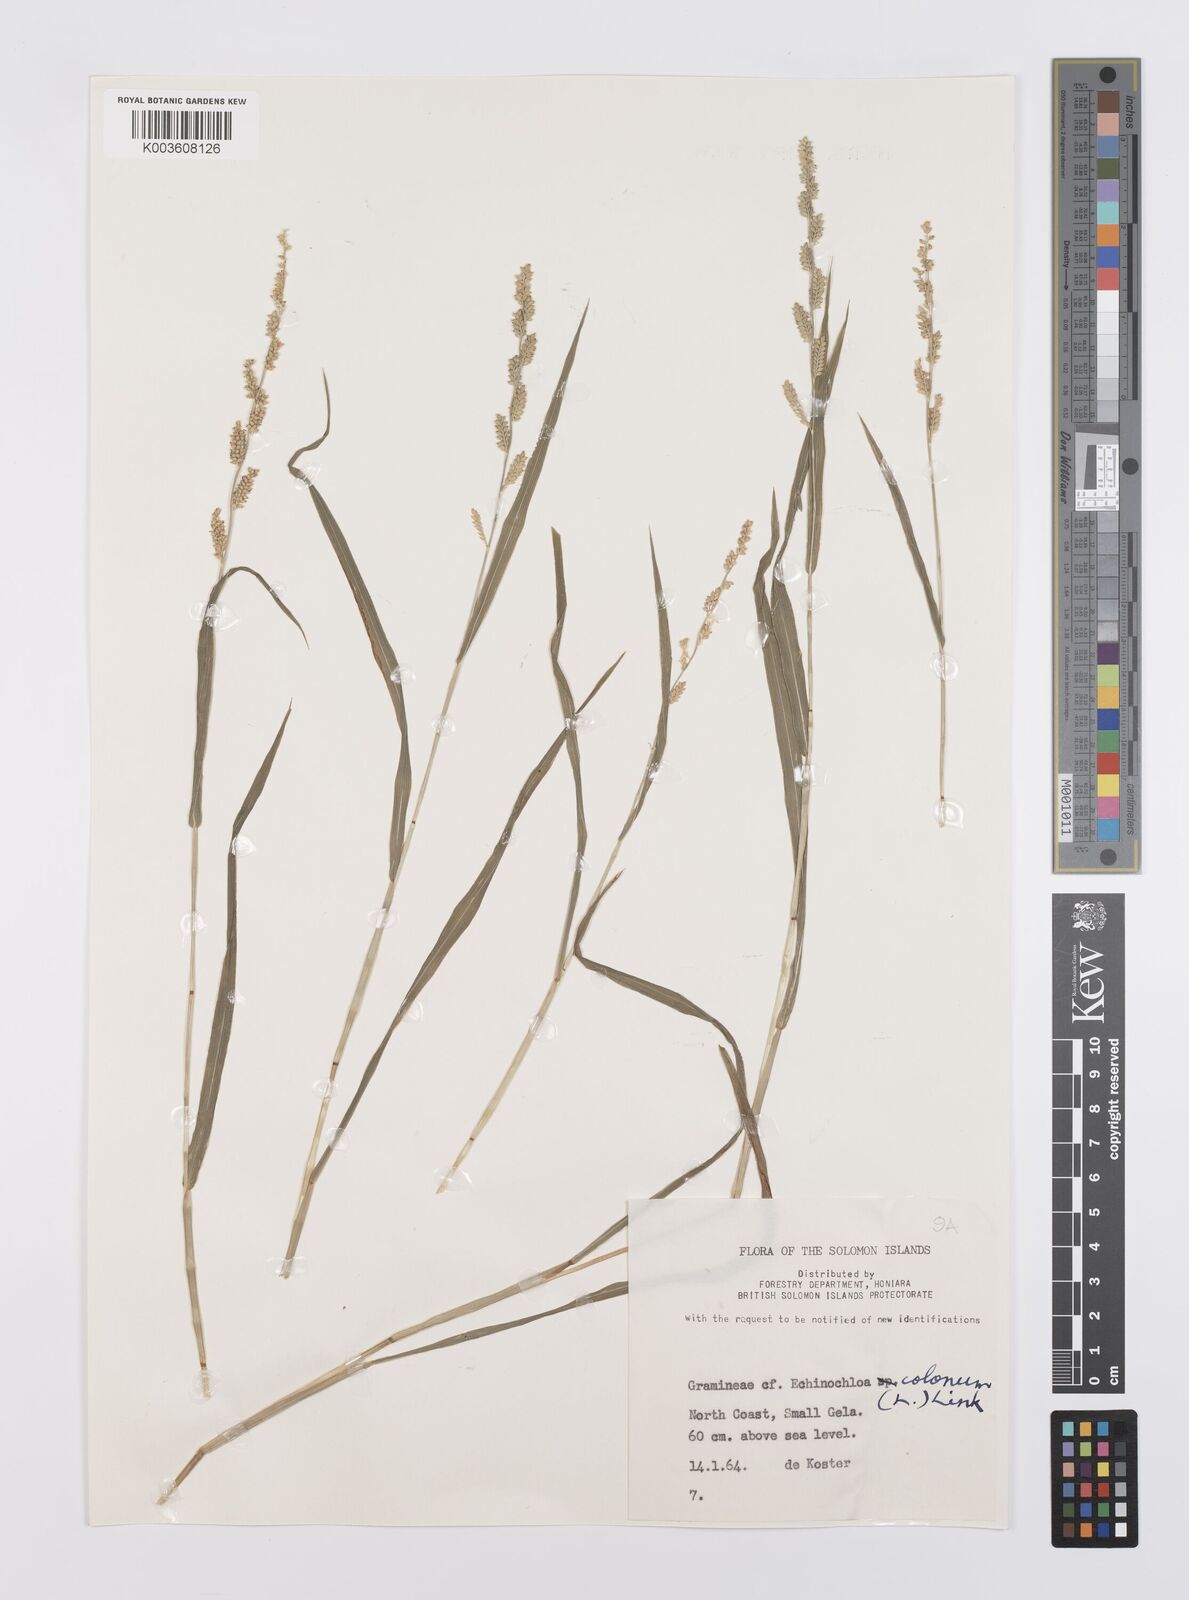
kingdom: Plantae
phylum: Tracheophyta
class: Liliopsida
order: Poales
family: Poaceae
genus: Echinochloa
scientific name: Echinochloa colonum
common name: Jungle rice
